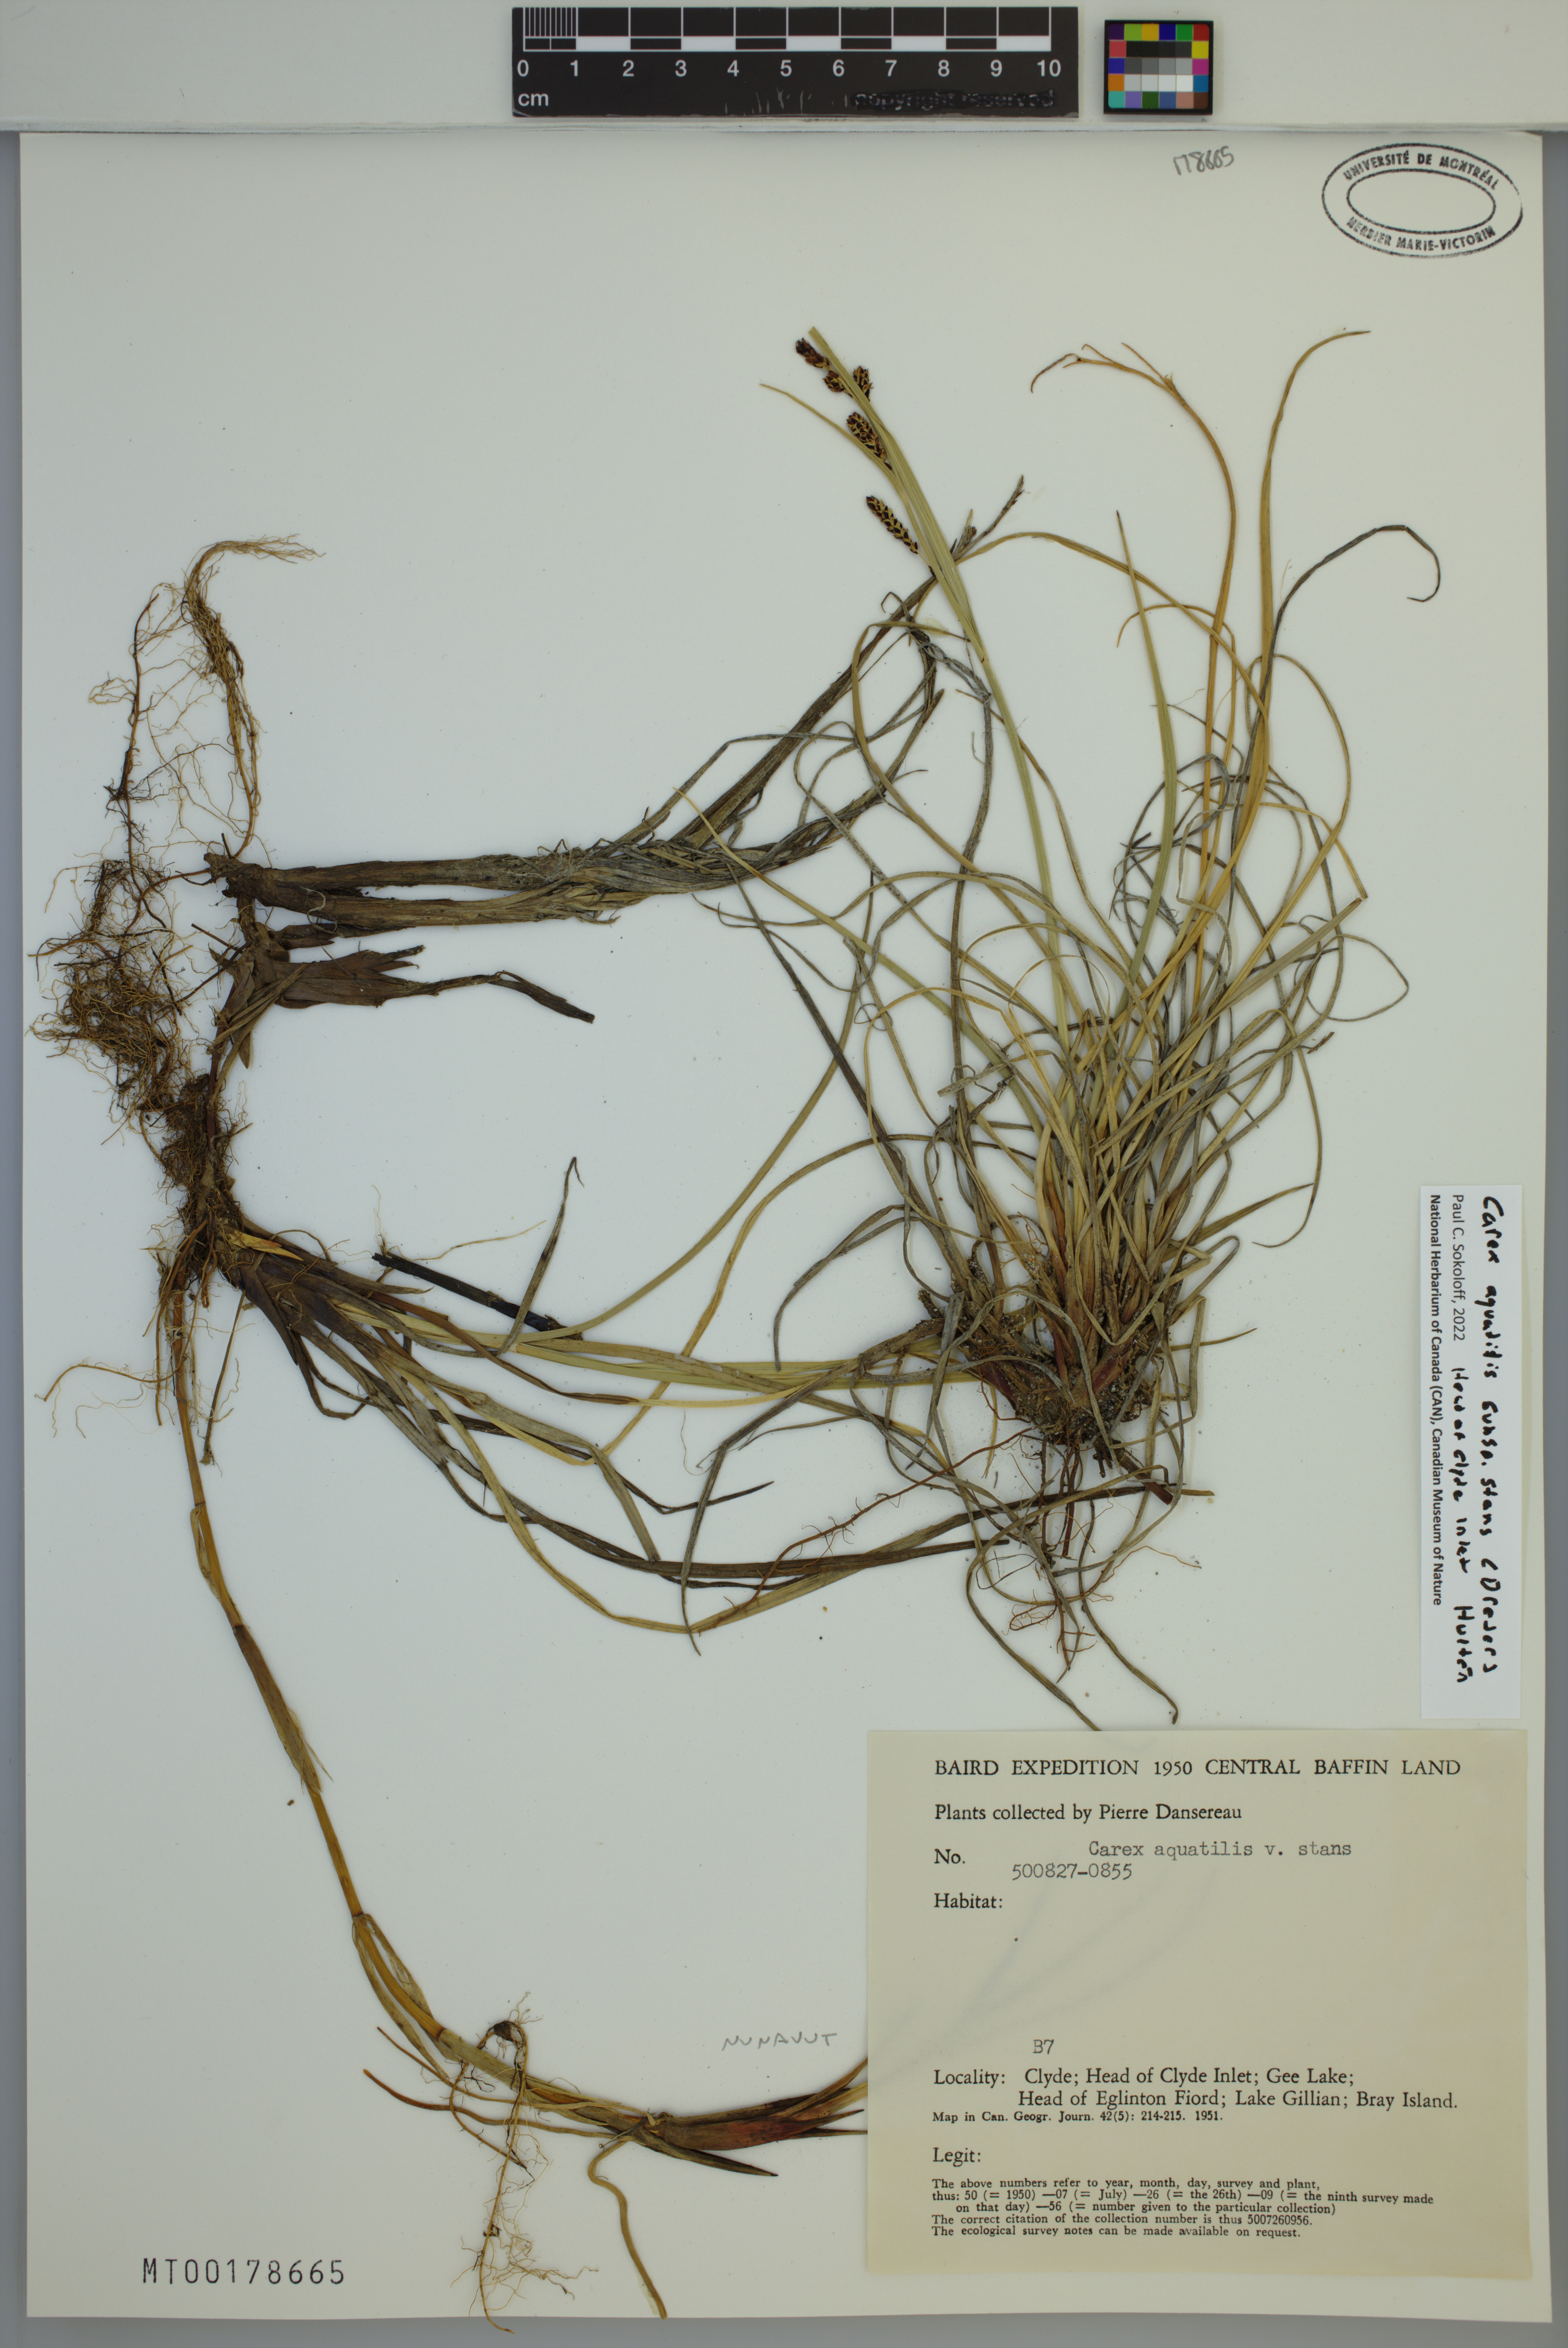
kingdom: Plantae
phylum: Tracheophyta
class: Liliopsida
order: Poales
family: Cyperaceae
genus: Carex
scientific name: Carex aquatilis
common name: Water sedge
